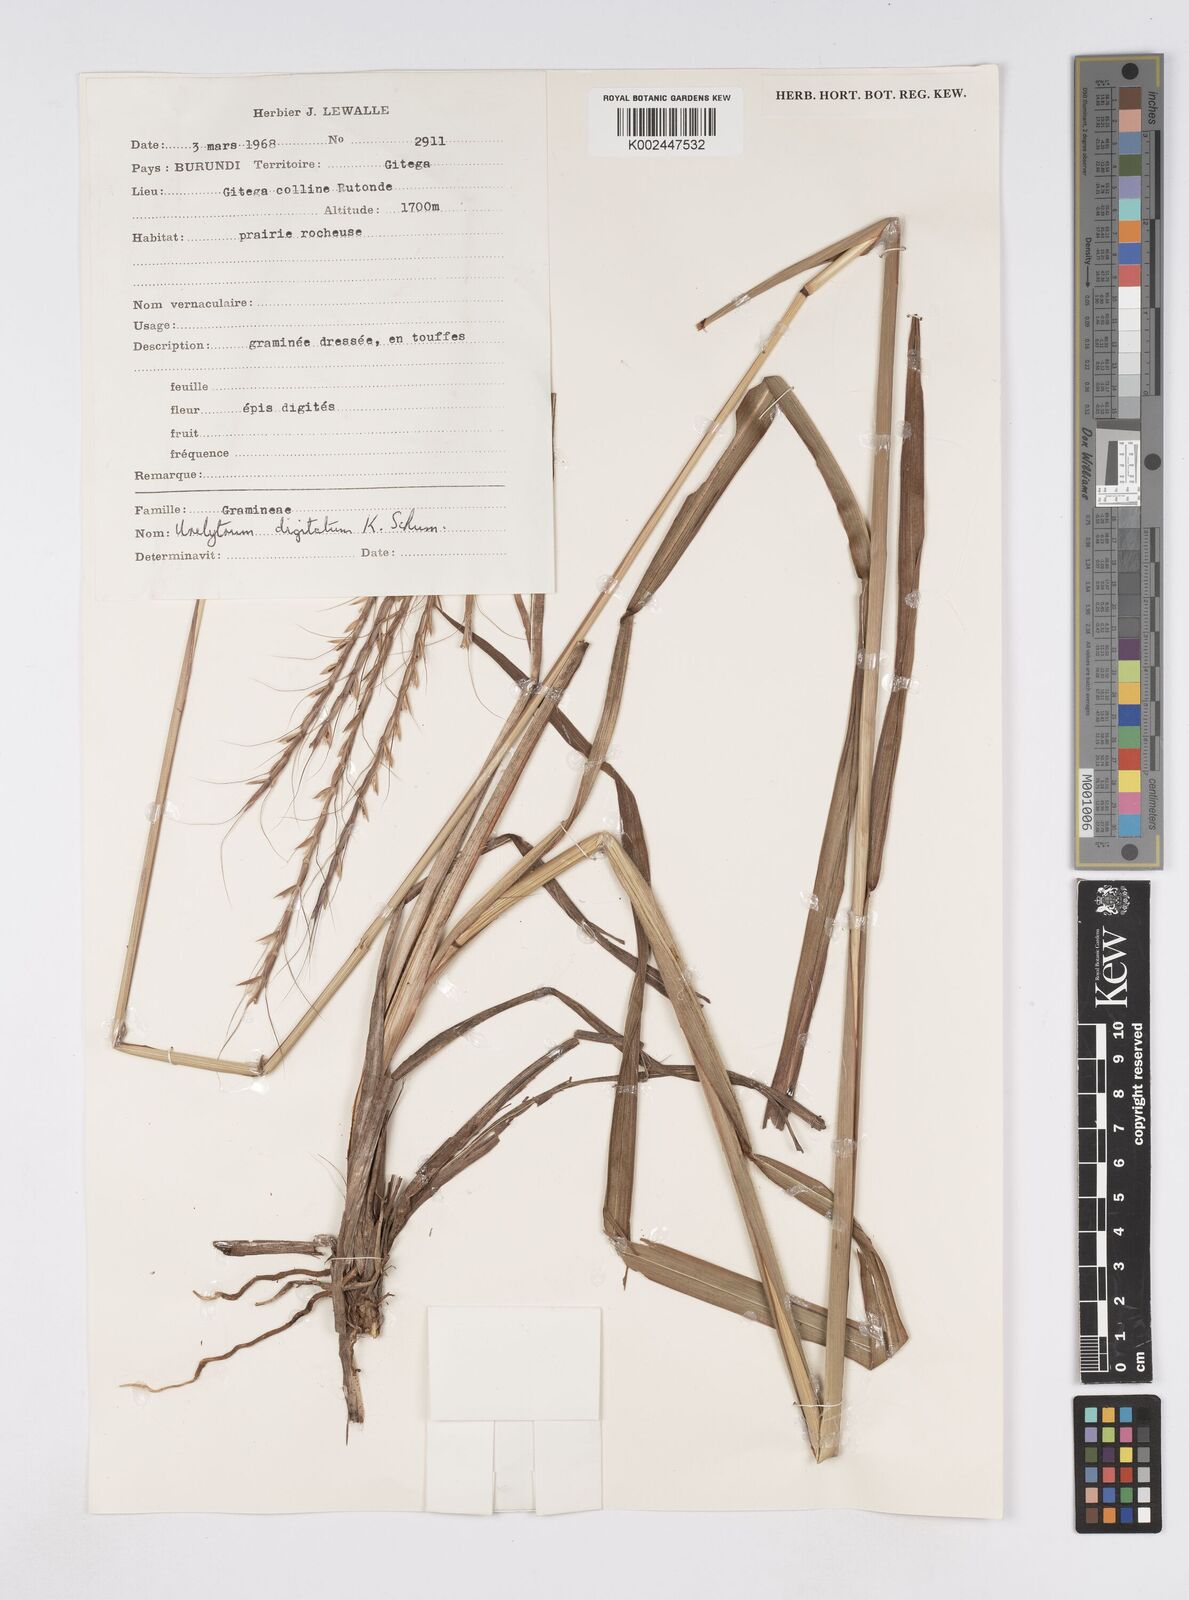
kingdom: Plantae
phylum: Tracheophyta
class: Liliopsida
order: Poales
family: Poaceae
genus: Urelytrum
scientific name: Urelytrum digitatum
